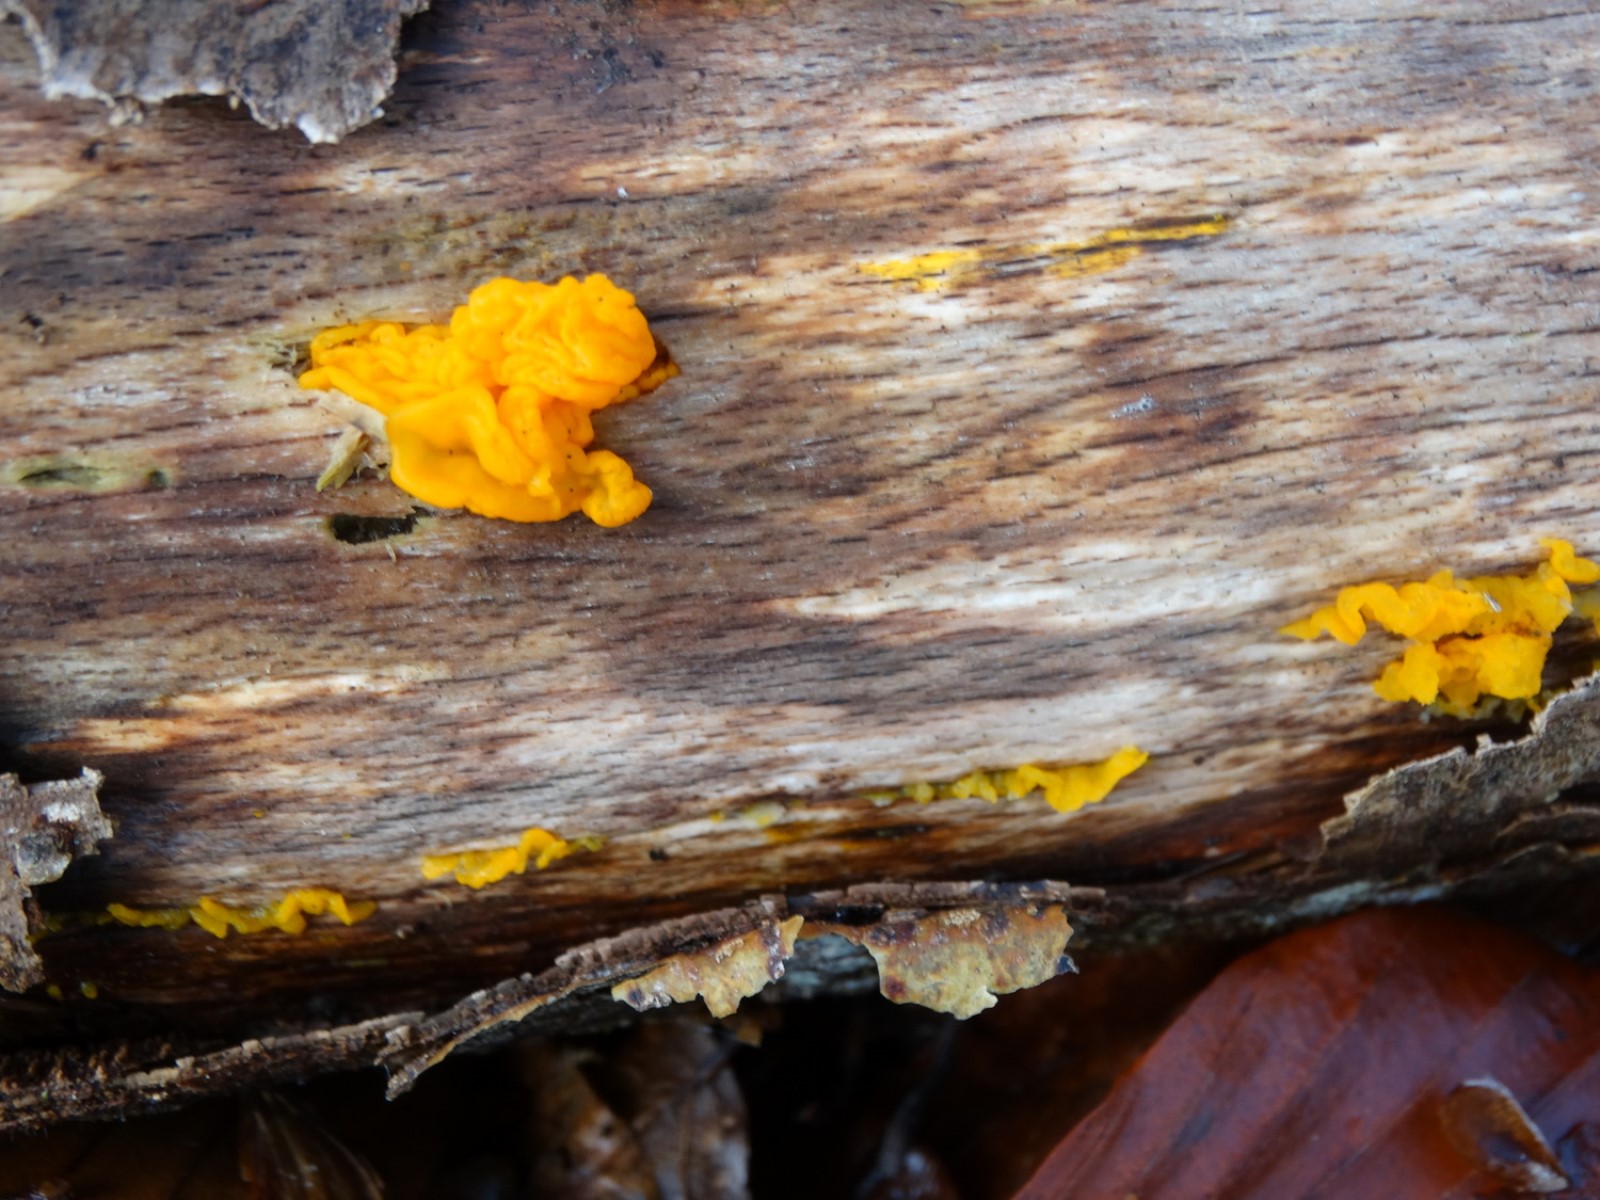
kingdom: Fungi
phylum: Basidiomycota
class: Tremellomycetes
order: Tremellales
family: Tremellaceae
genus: Tremella
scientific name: Tremella mesenterica
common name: gul bævresvamp
